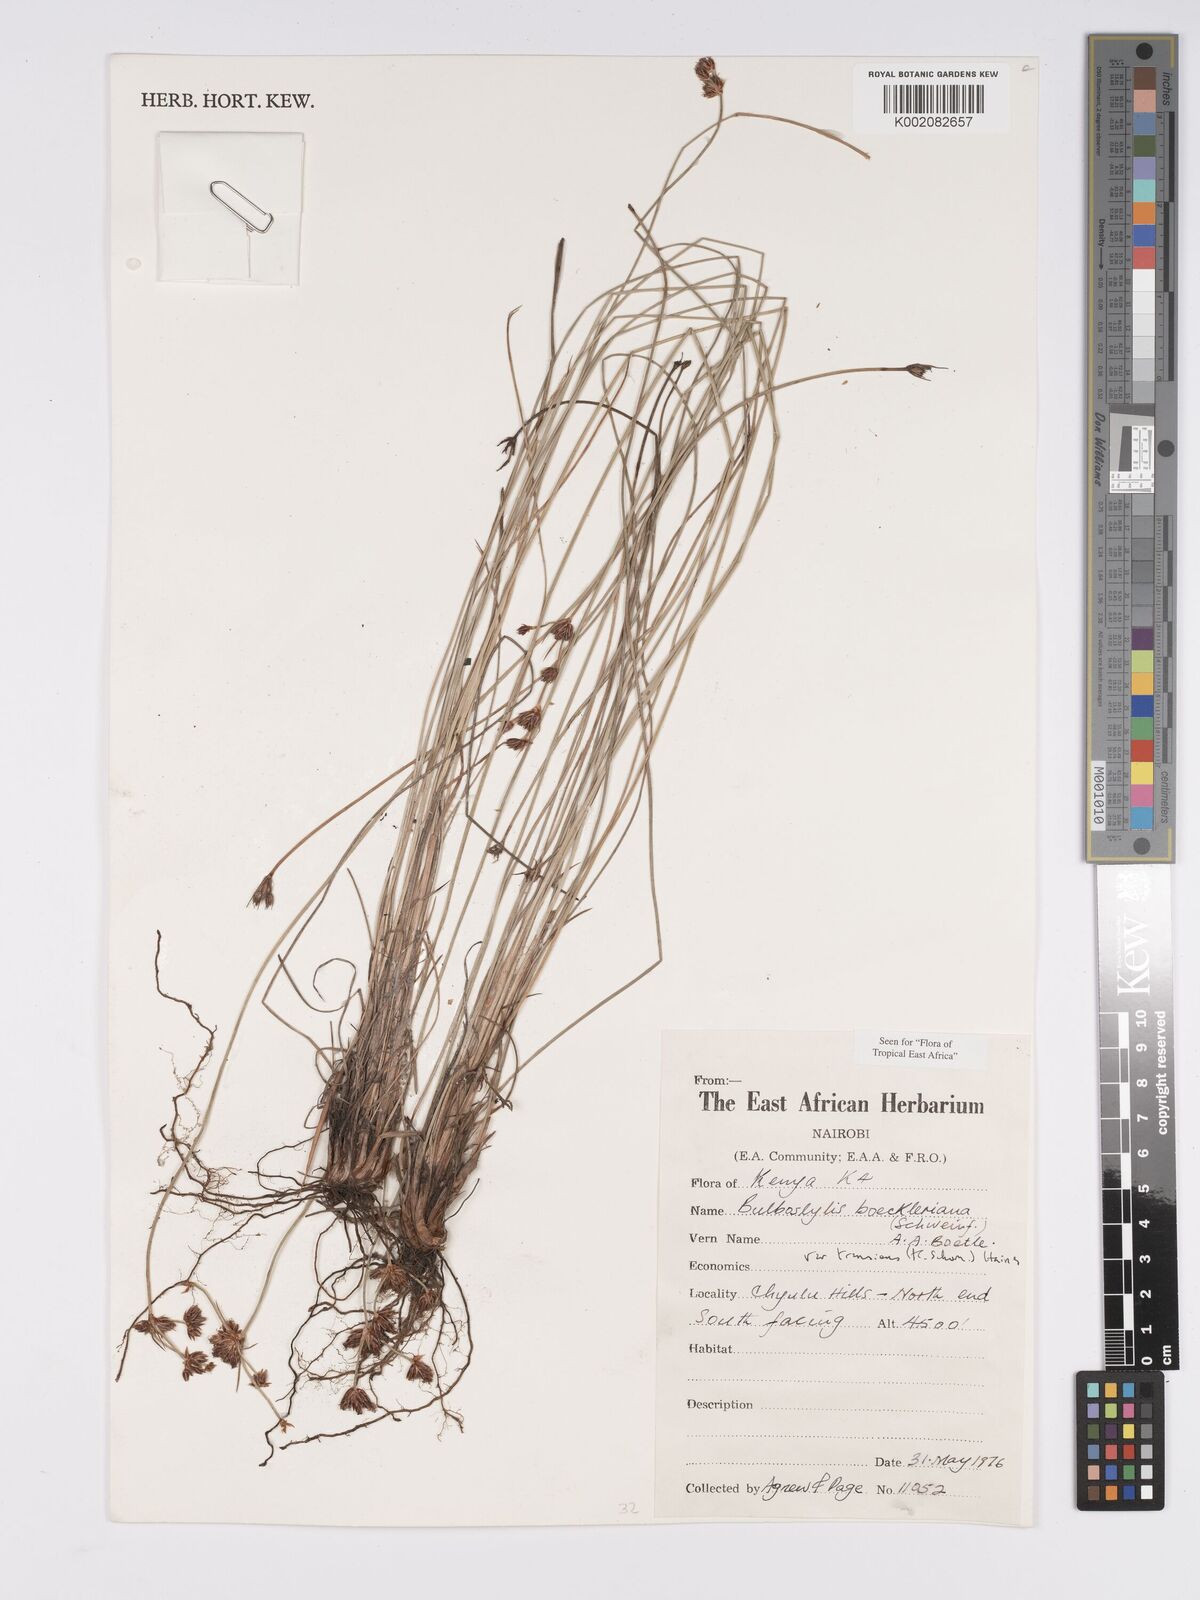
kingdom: Plantae
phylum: Tracheophyta
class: Liliopsida
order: Poales
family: Cyperaceae
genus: Bulbostylis
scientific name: Bulbostylis boeckeleriana
